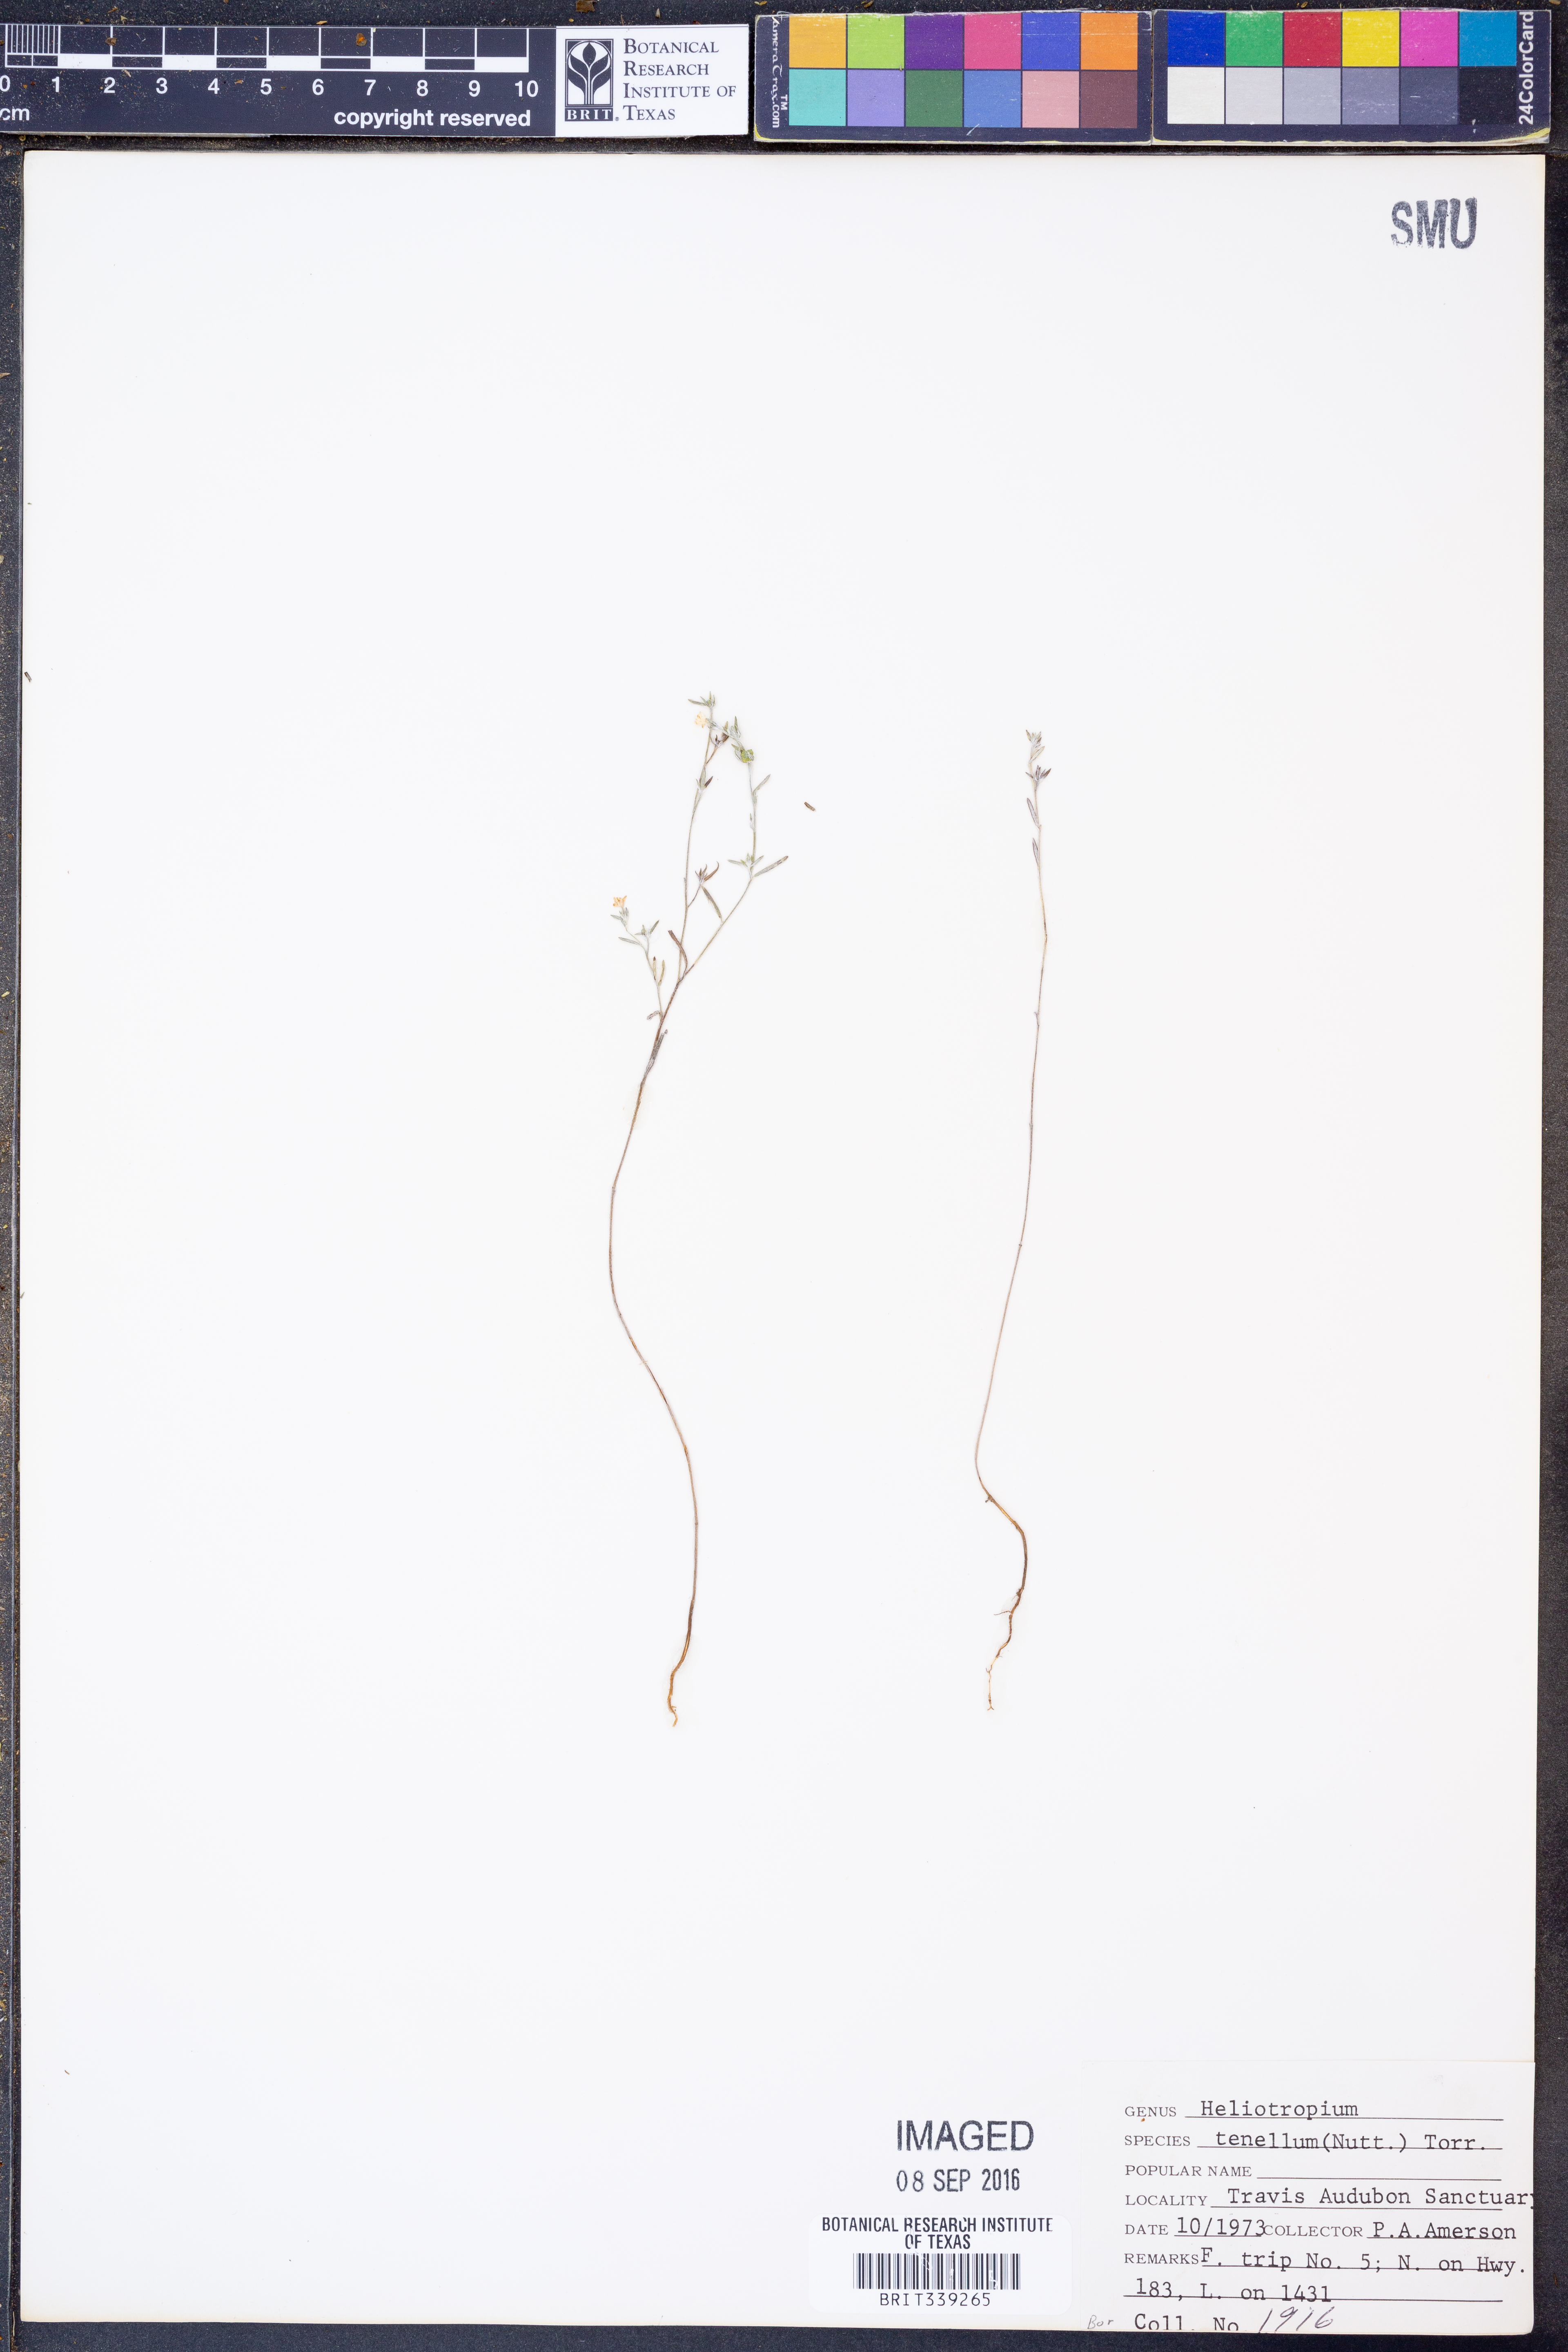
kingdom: Plantae
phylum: Tracheophyta
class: Magnoliopsida
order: Boraginales
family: Heliotropiaceae
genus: Euploca
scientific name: Euploca tenella
